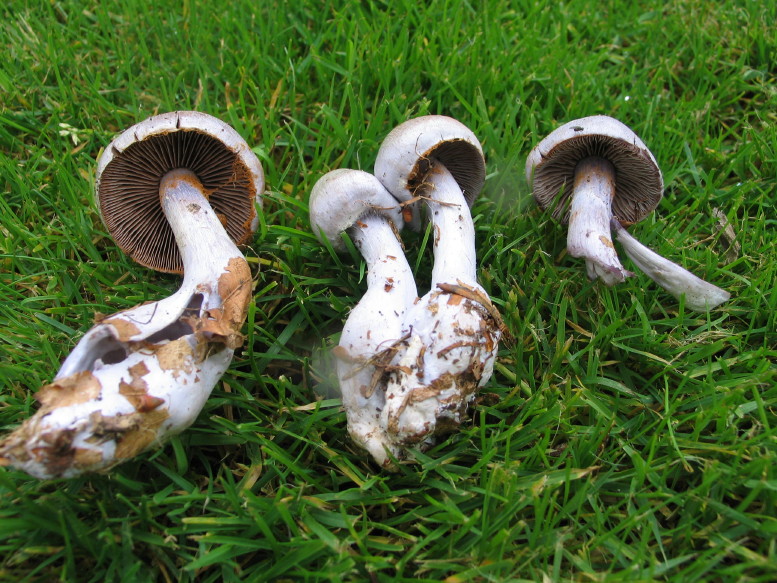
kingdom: Fungi
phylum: Basidiomycota
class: Agaricomycetes
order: Agaricales
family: Cortinariaceae
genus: Cortinarius
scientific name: Cortinarius alboviolaceus
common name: lysviolet slørhat
